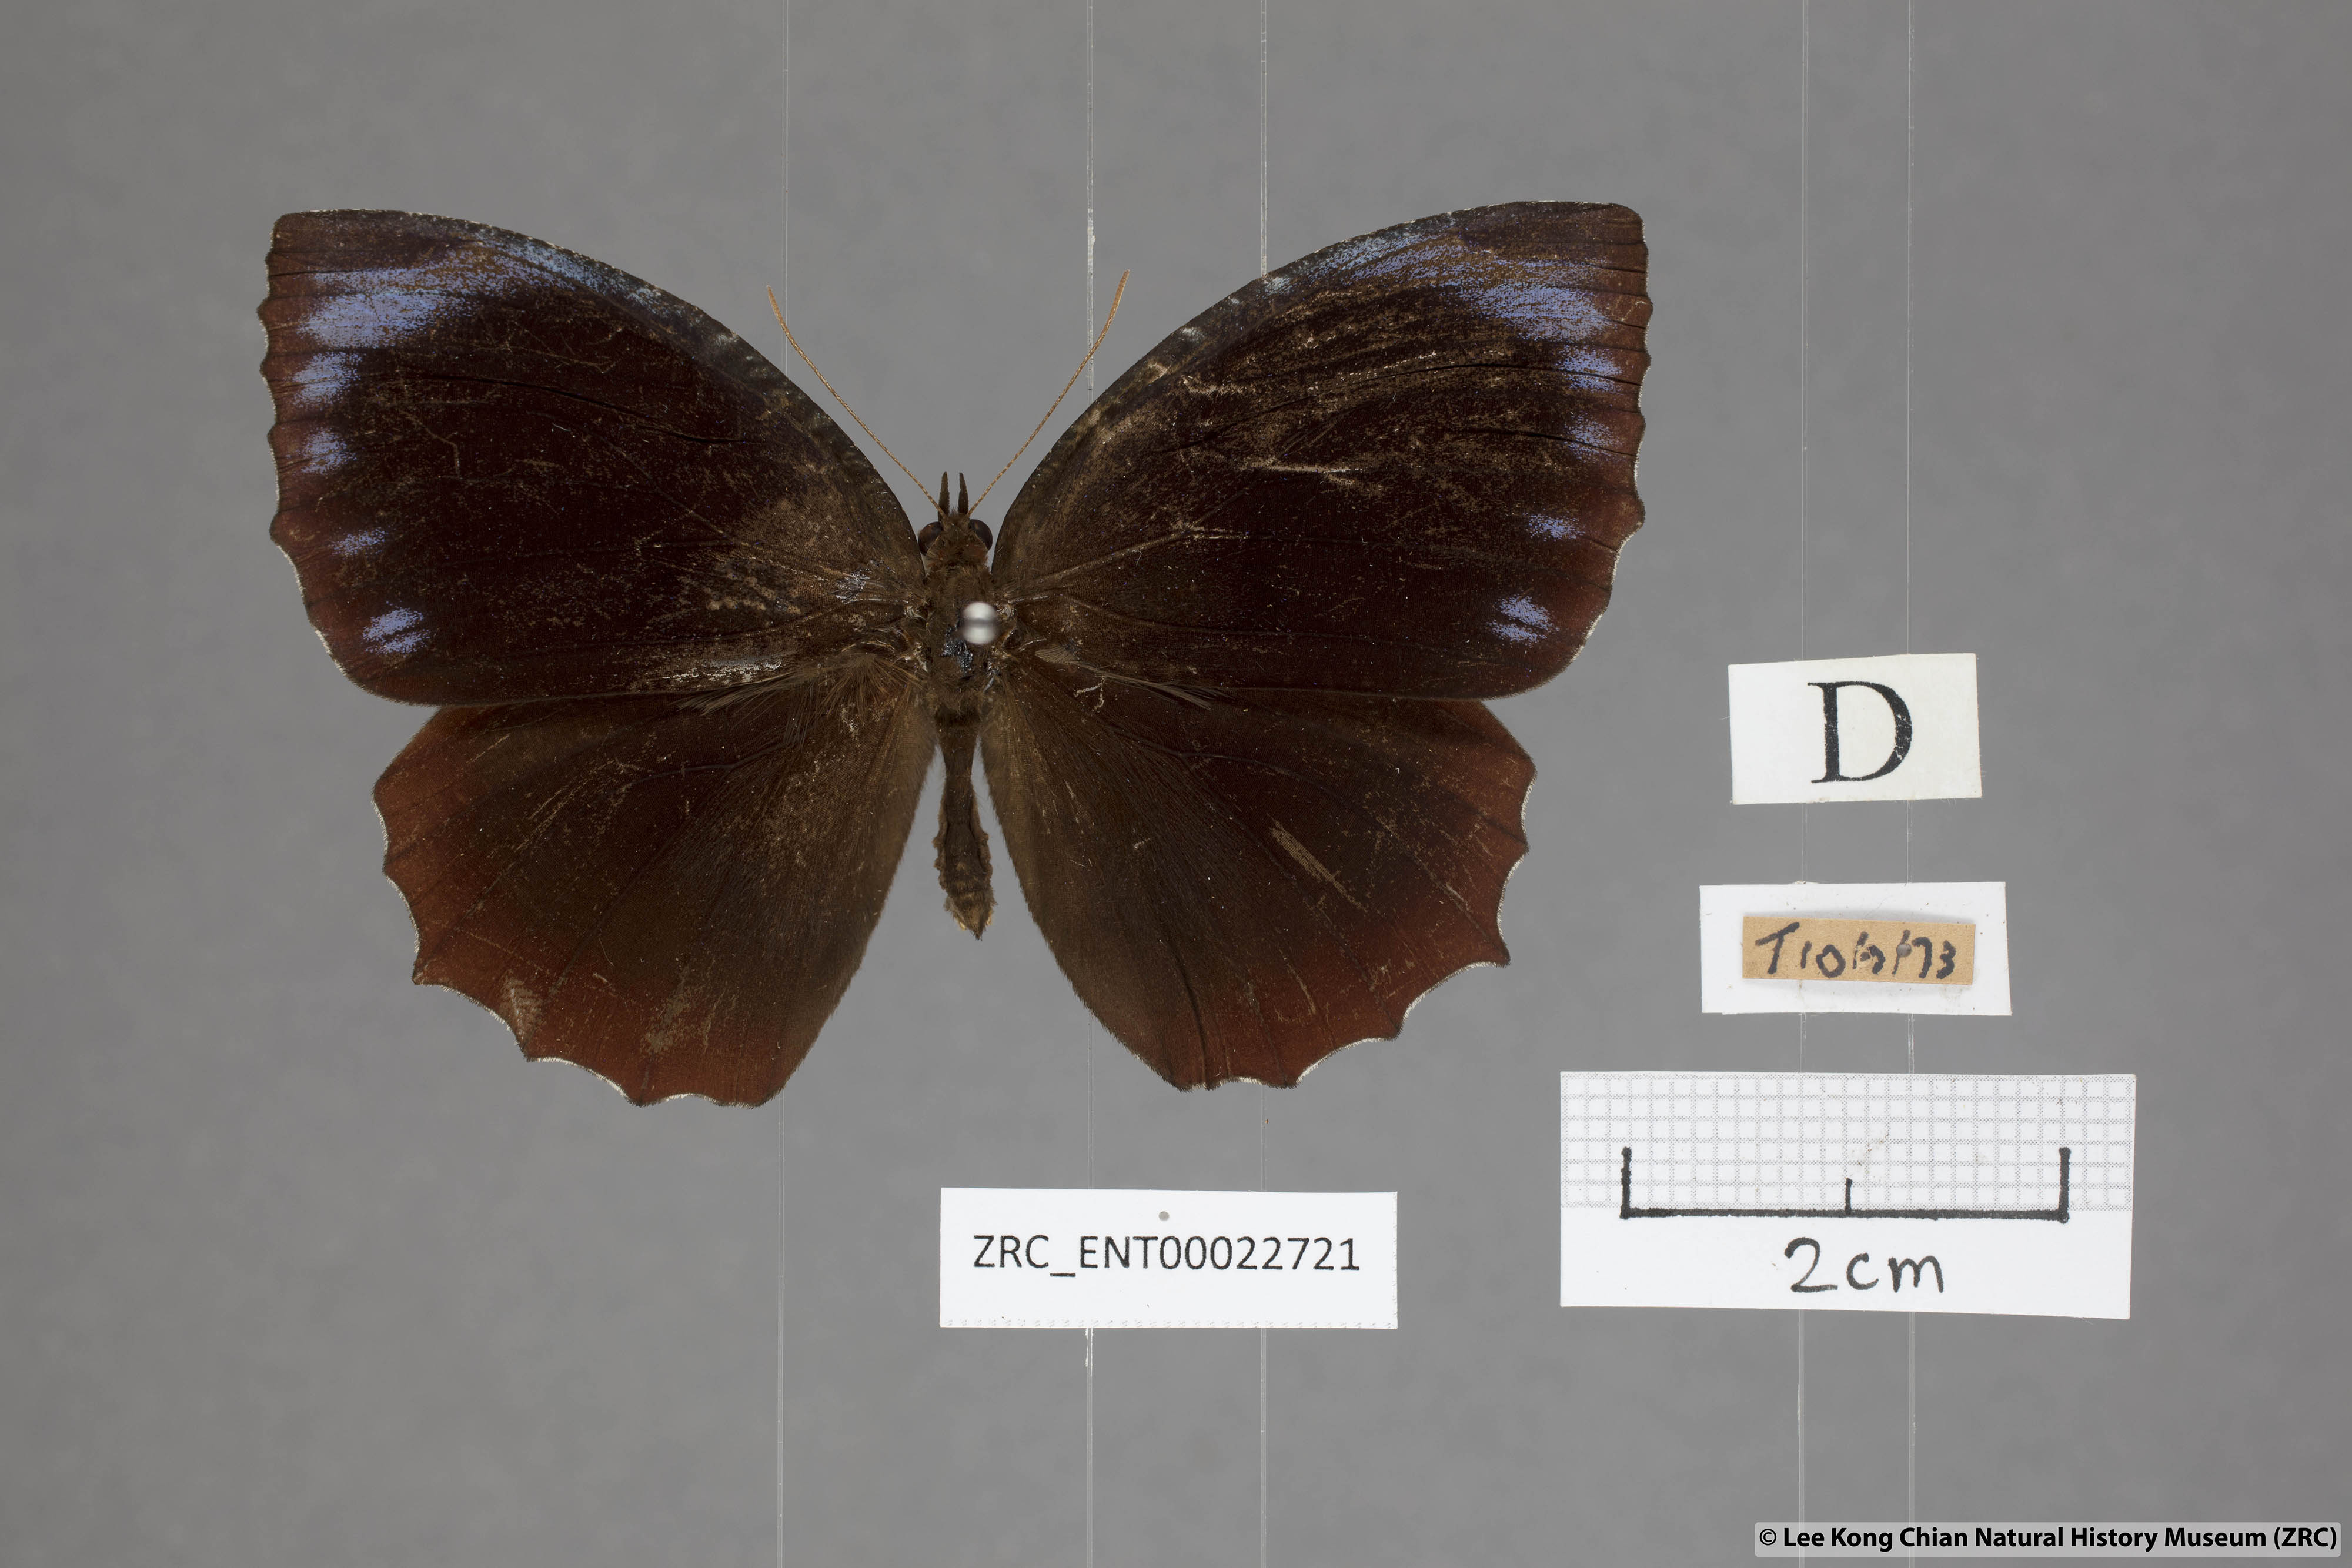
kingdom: Animalia
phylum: Arthropoda
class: Insecta
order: Lepidoptera
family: Nymphalidae
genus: Elymnias
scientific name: Elymnias hypermnestra
